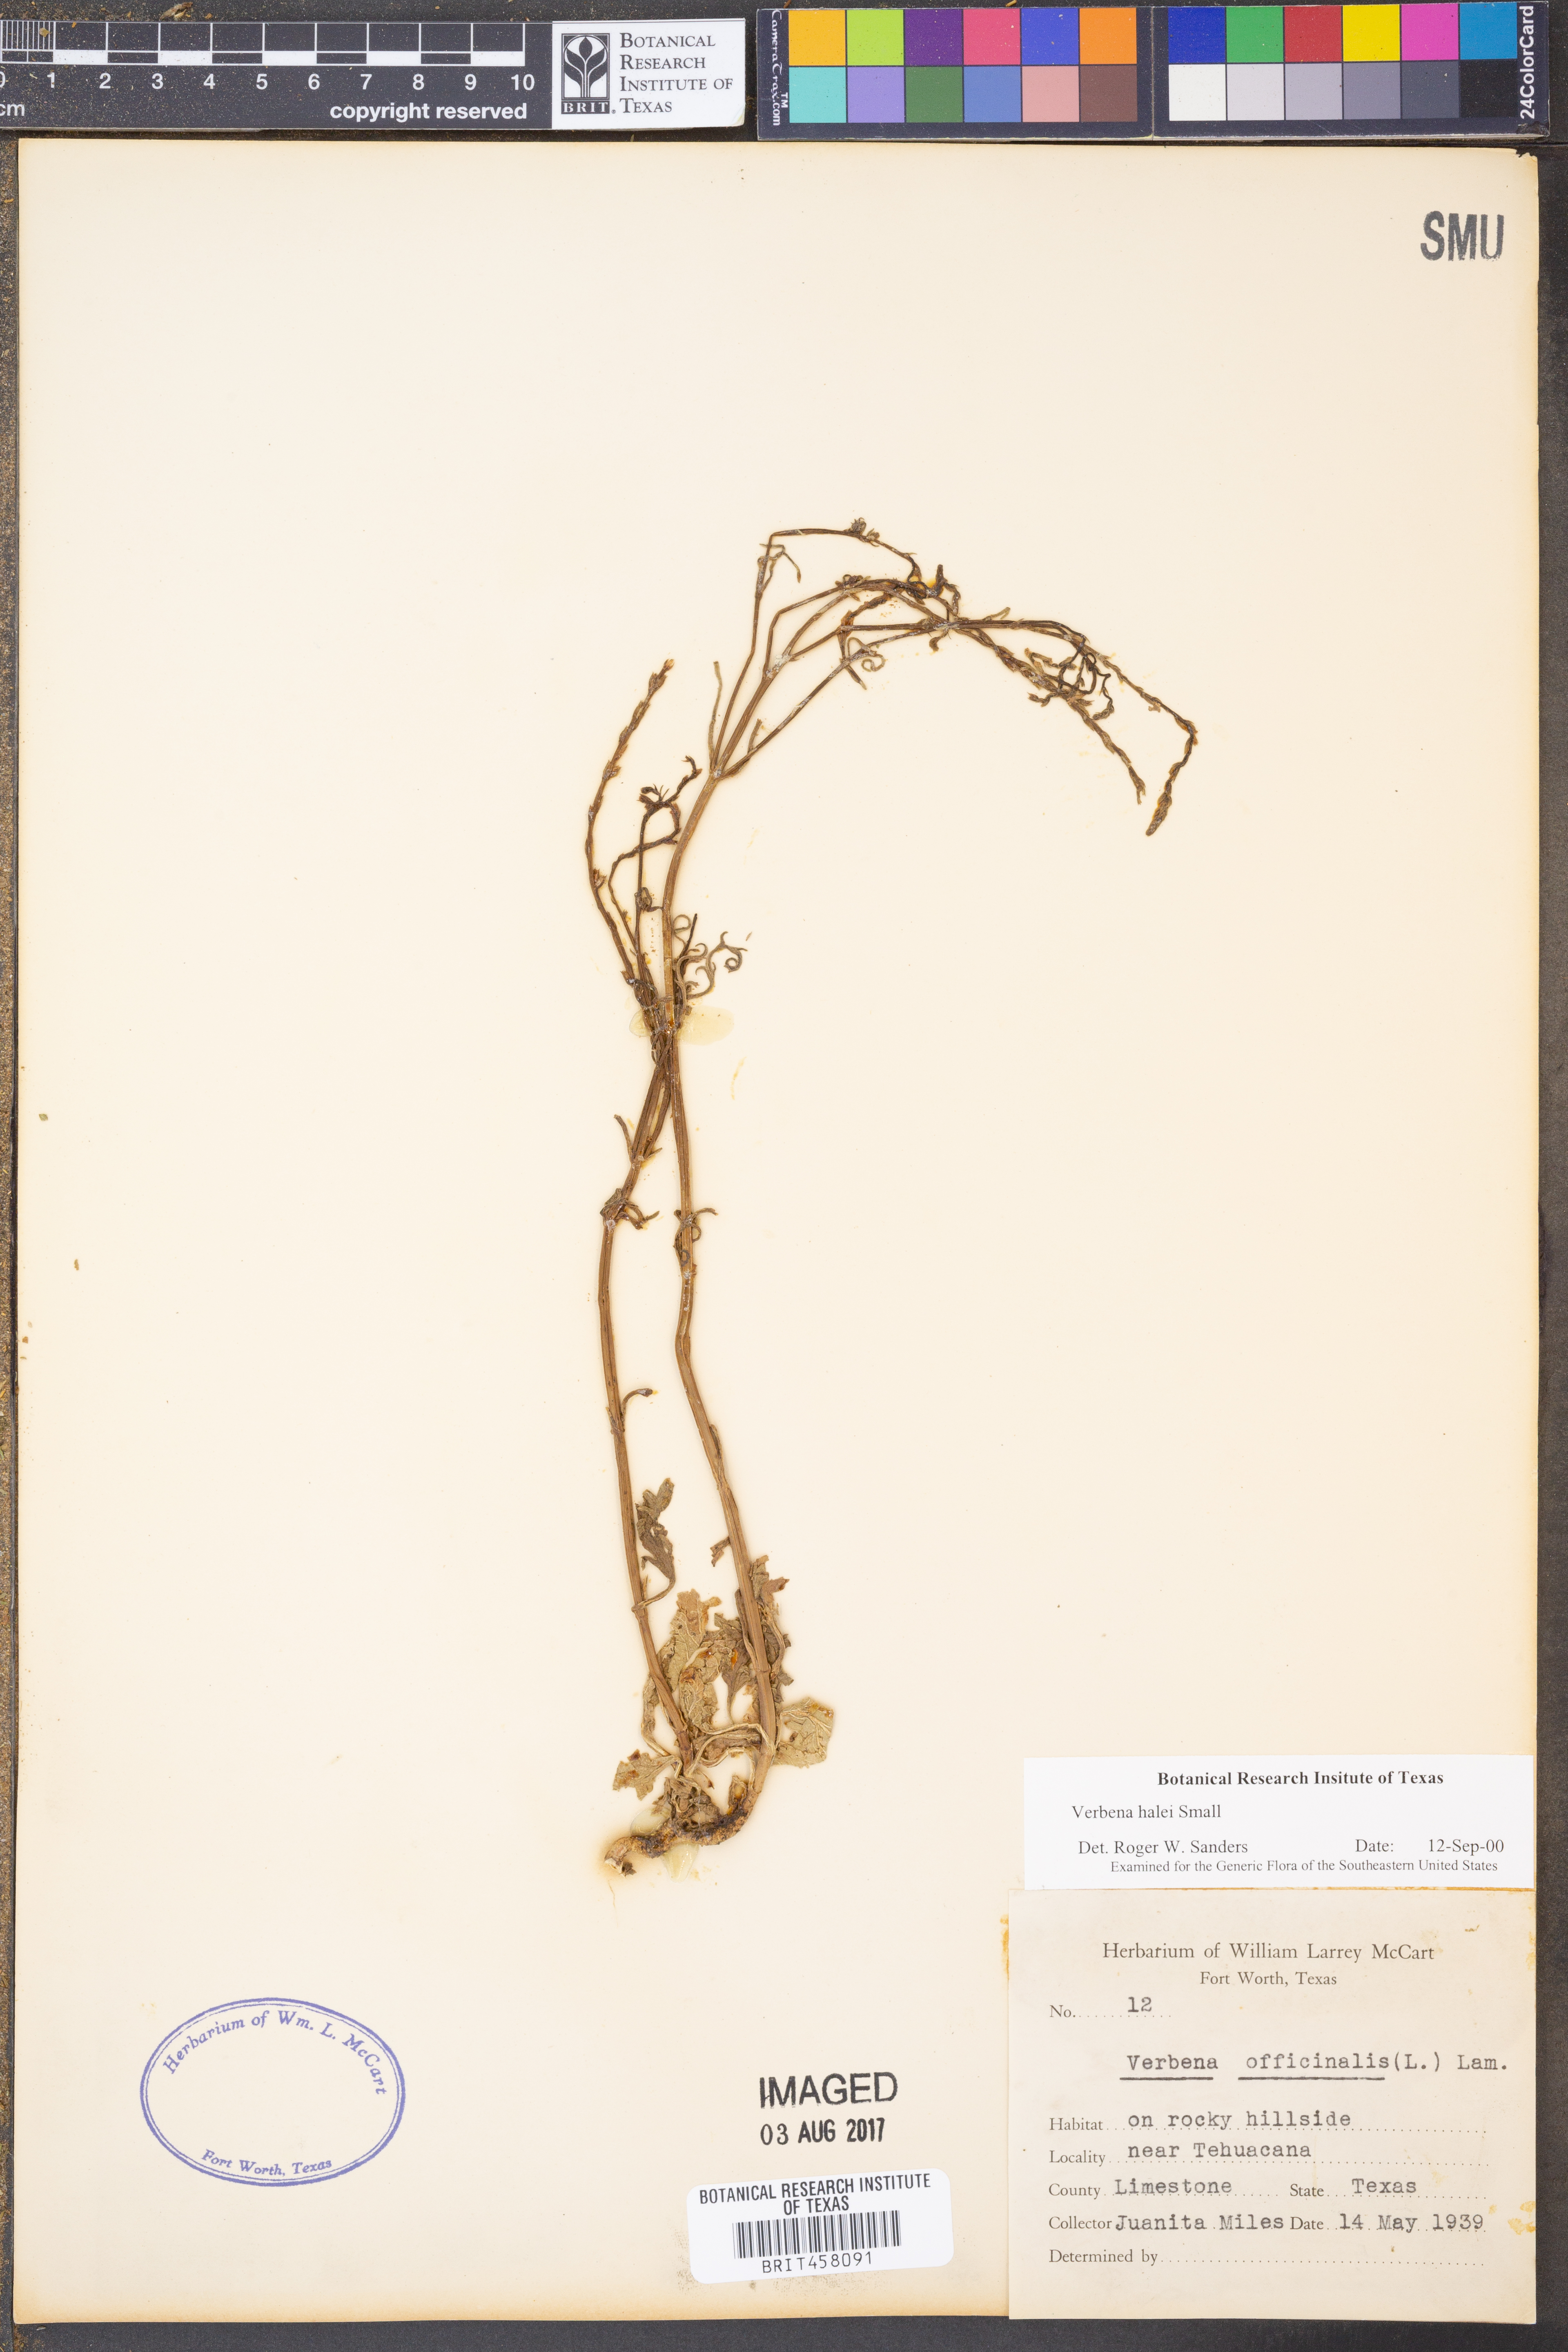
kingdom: Plantae
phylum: Tracheophyta
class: Magnoliopsida
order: Lamiales
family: Verbenaceae
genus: Verbena
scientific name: Verbena halei
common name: Texas vervain
